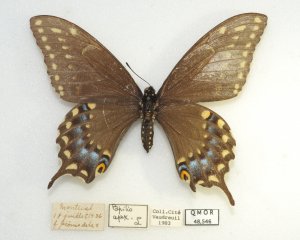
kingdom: Animalia
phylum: Arthropoda
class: Insecta
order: Lepidoptera
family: Papilionidae
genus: Papilio
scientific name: Papilio polyxenes
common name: Black Swallowtail
